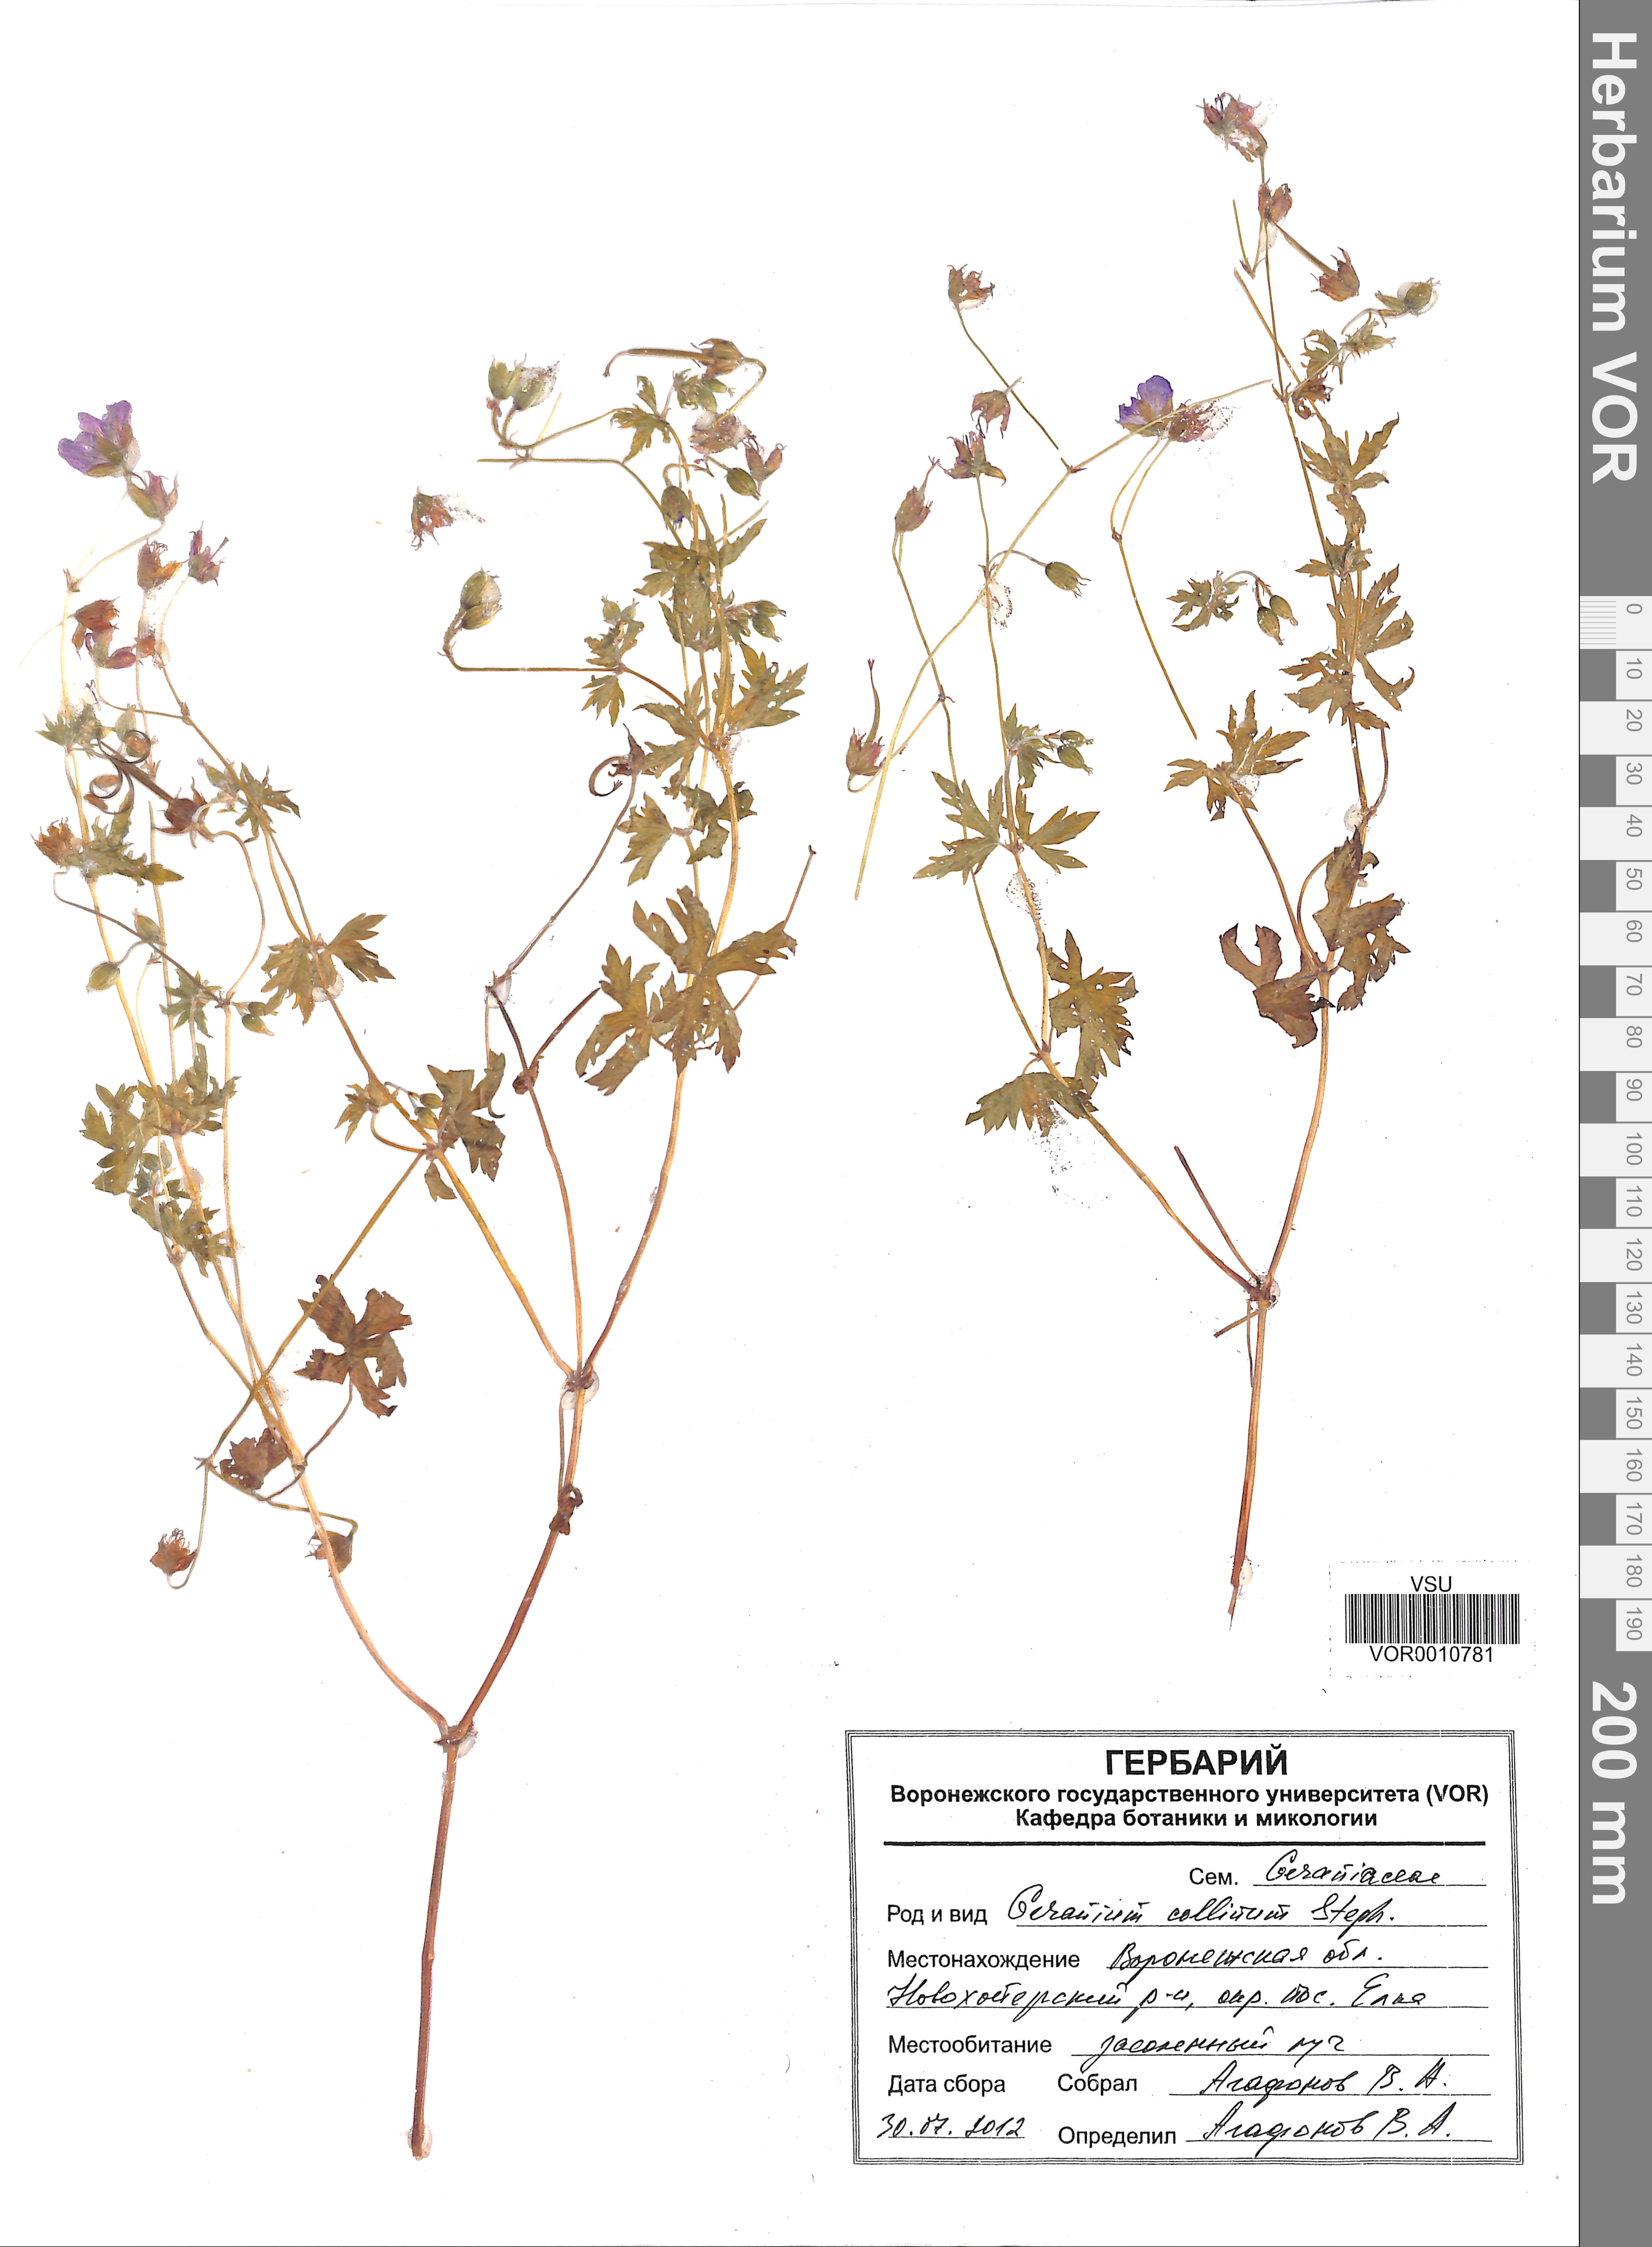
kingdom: Plantae
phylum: Tracheophyta
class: Magnoliopsida
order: Geraniales
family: Geraniaceae
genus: Geranium
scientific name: Geranium collinum
